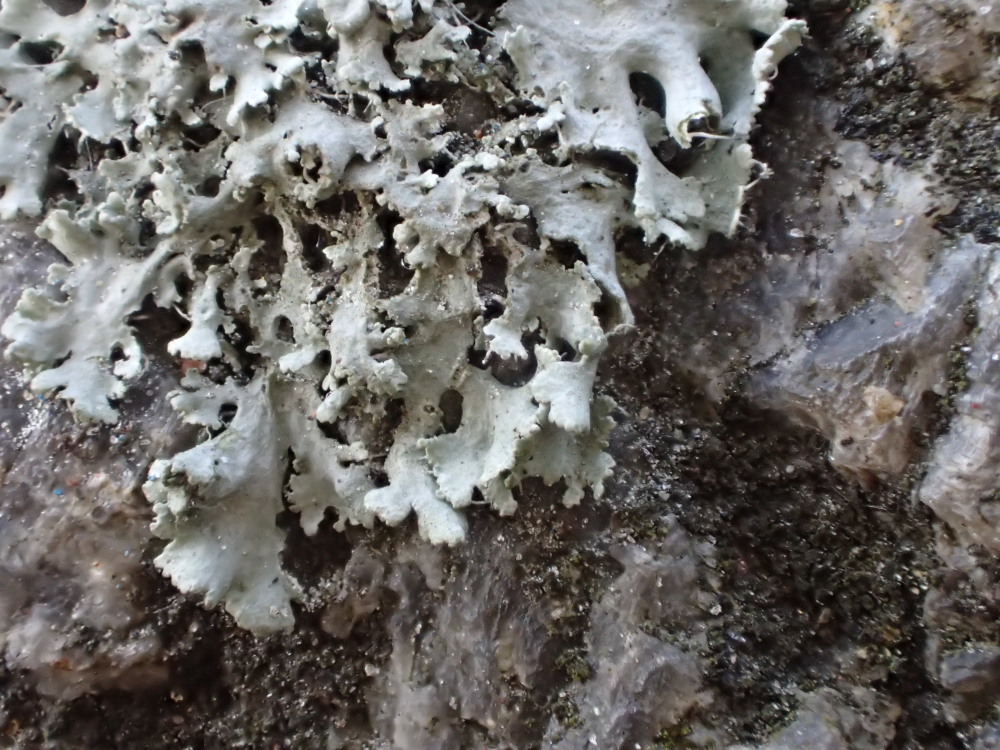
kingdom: Fungi
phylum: Ascomycota
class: Lecanoromycetes
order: Caliciales
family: Physciaceae
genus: Physcia
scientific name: Physcia tenella
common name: spæd rosetlav
